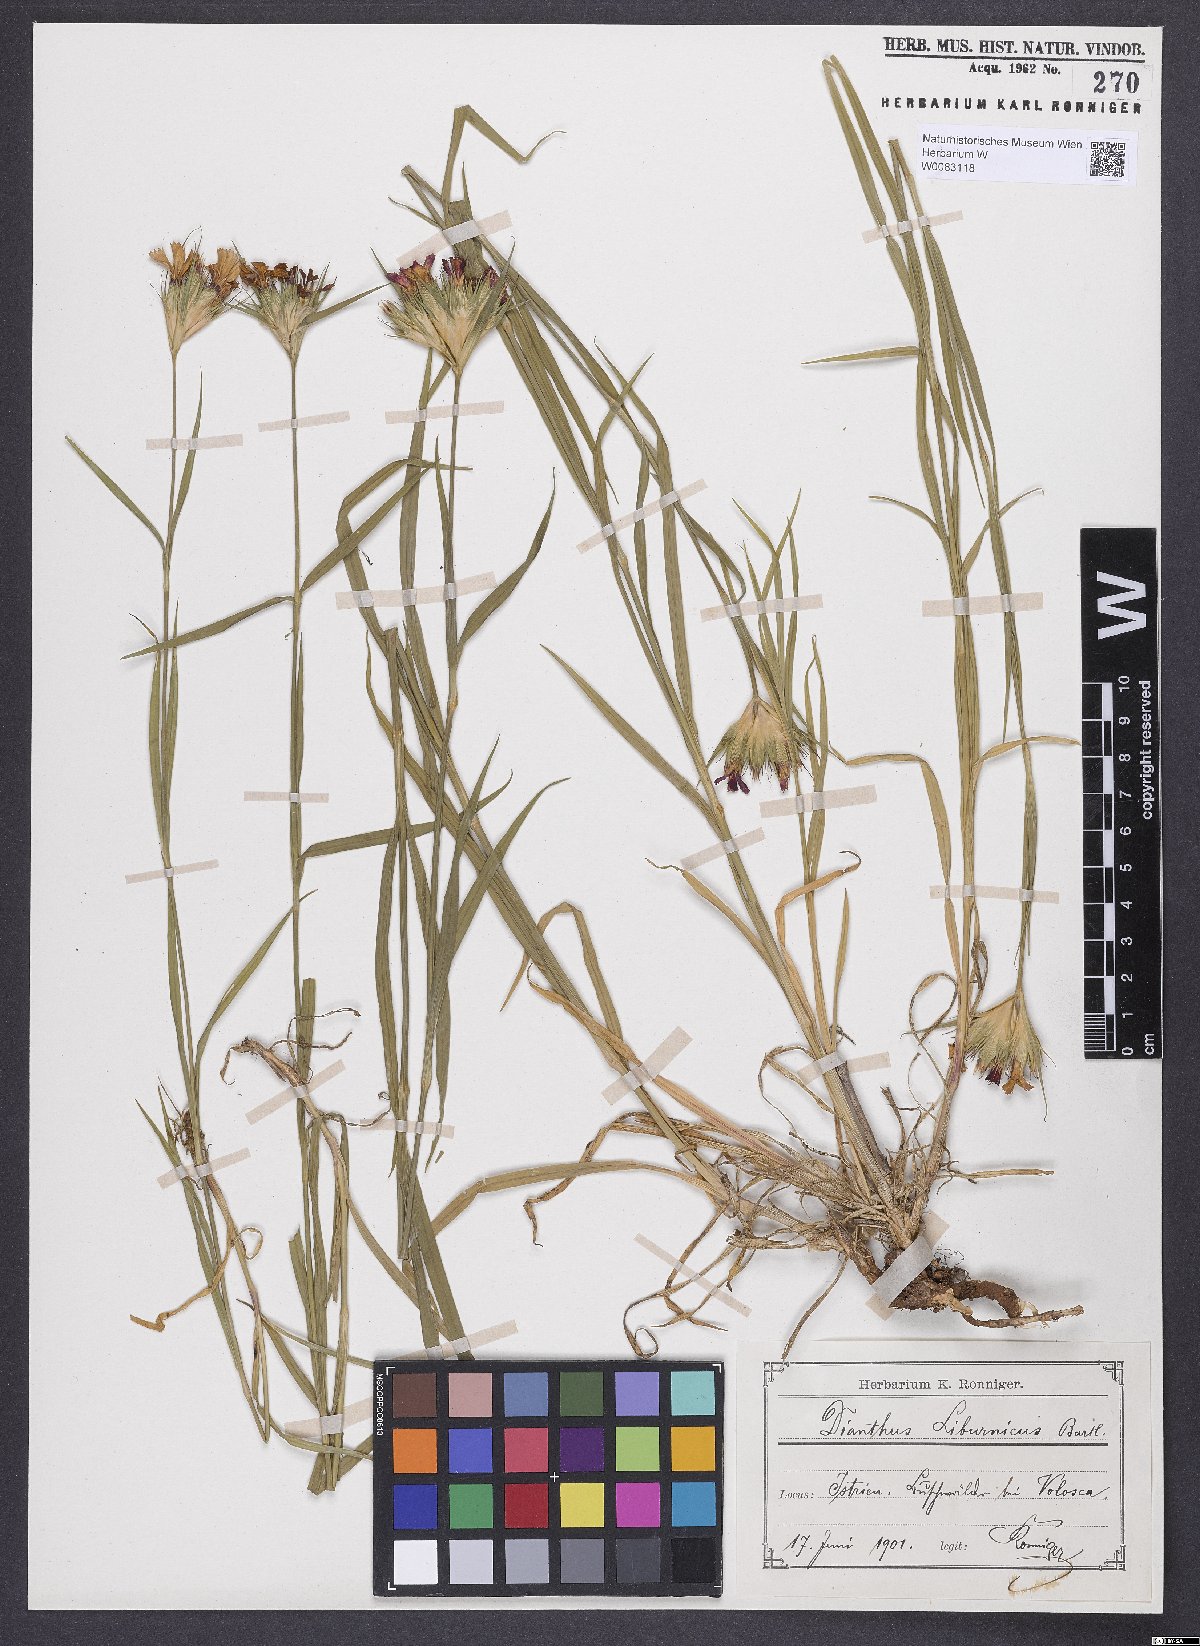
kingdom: Plantae
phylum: Tracheophyta
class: Magnoliopsida
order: Caryophyllales
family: Caryophyllaceae
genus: Dianthus
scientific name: Dianthus balbisii
